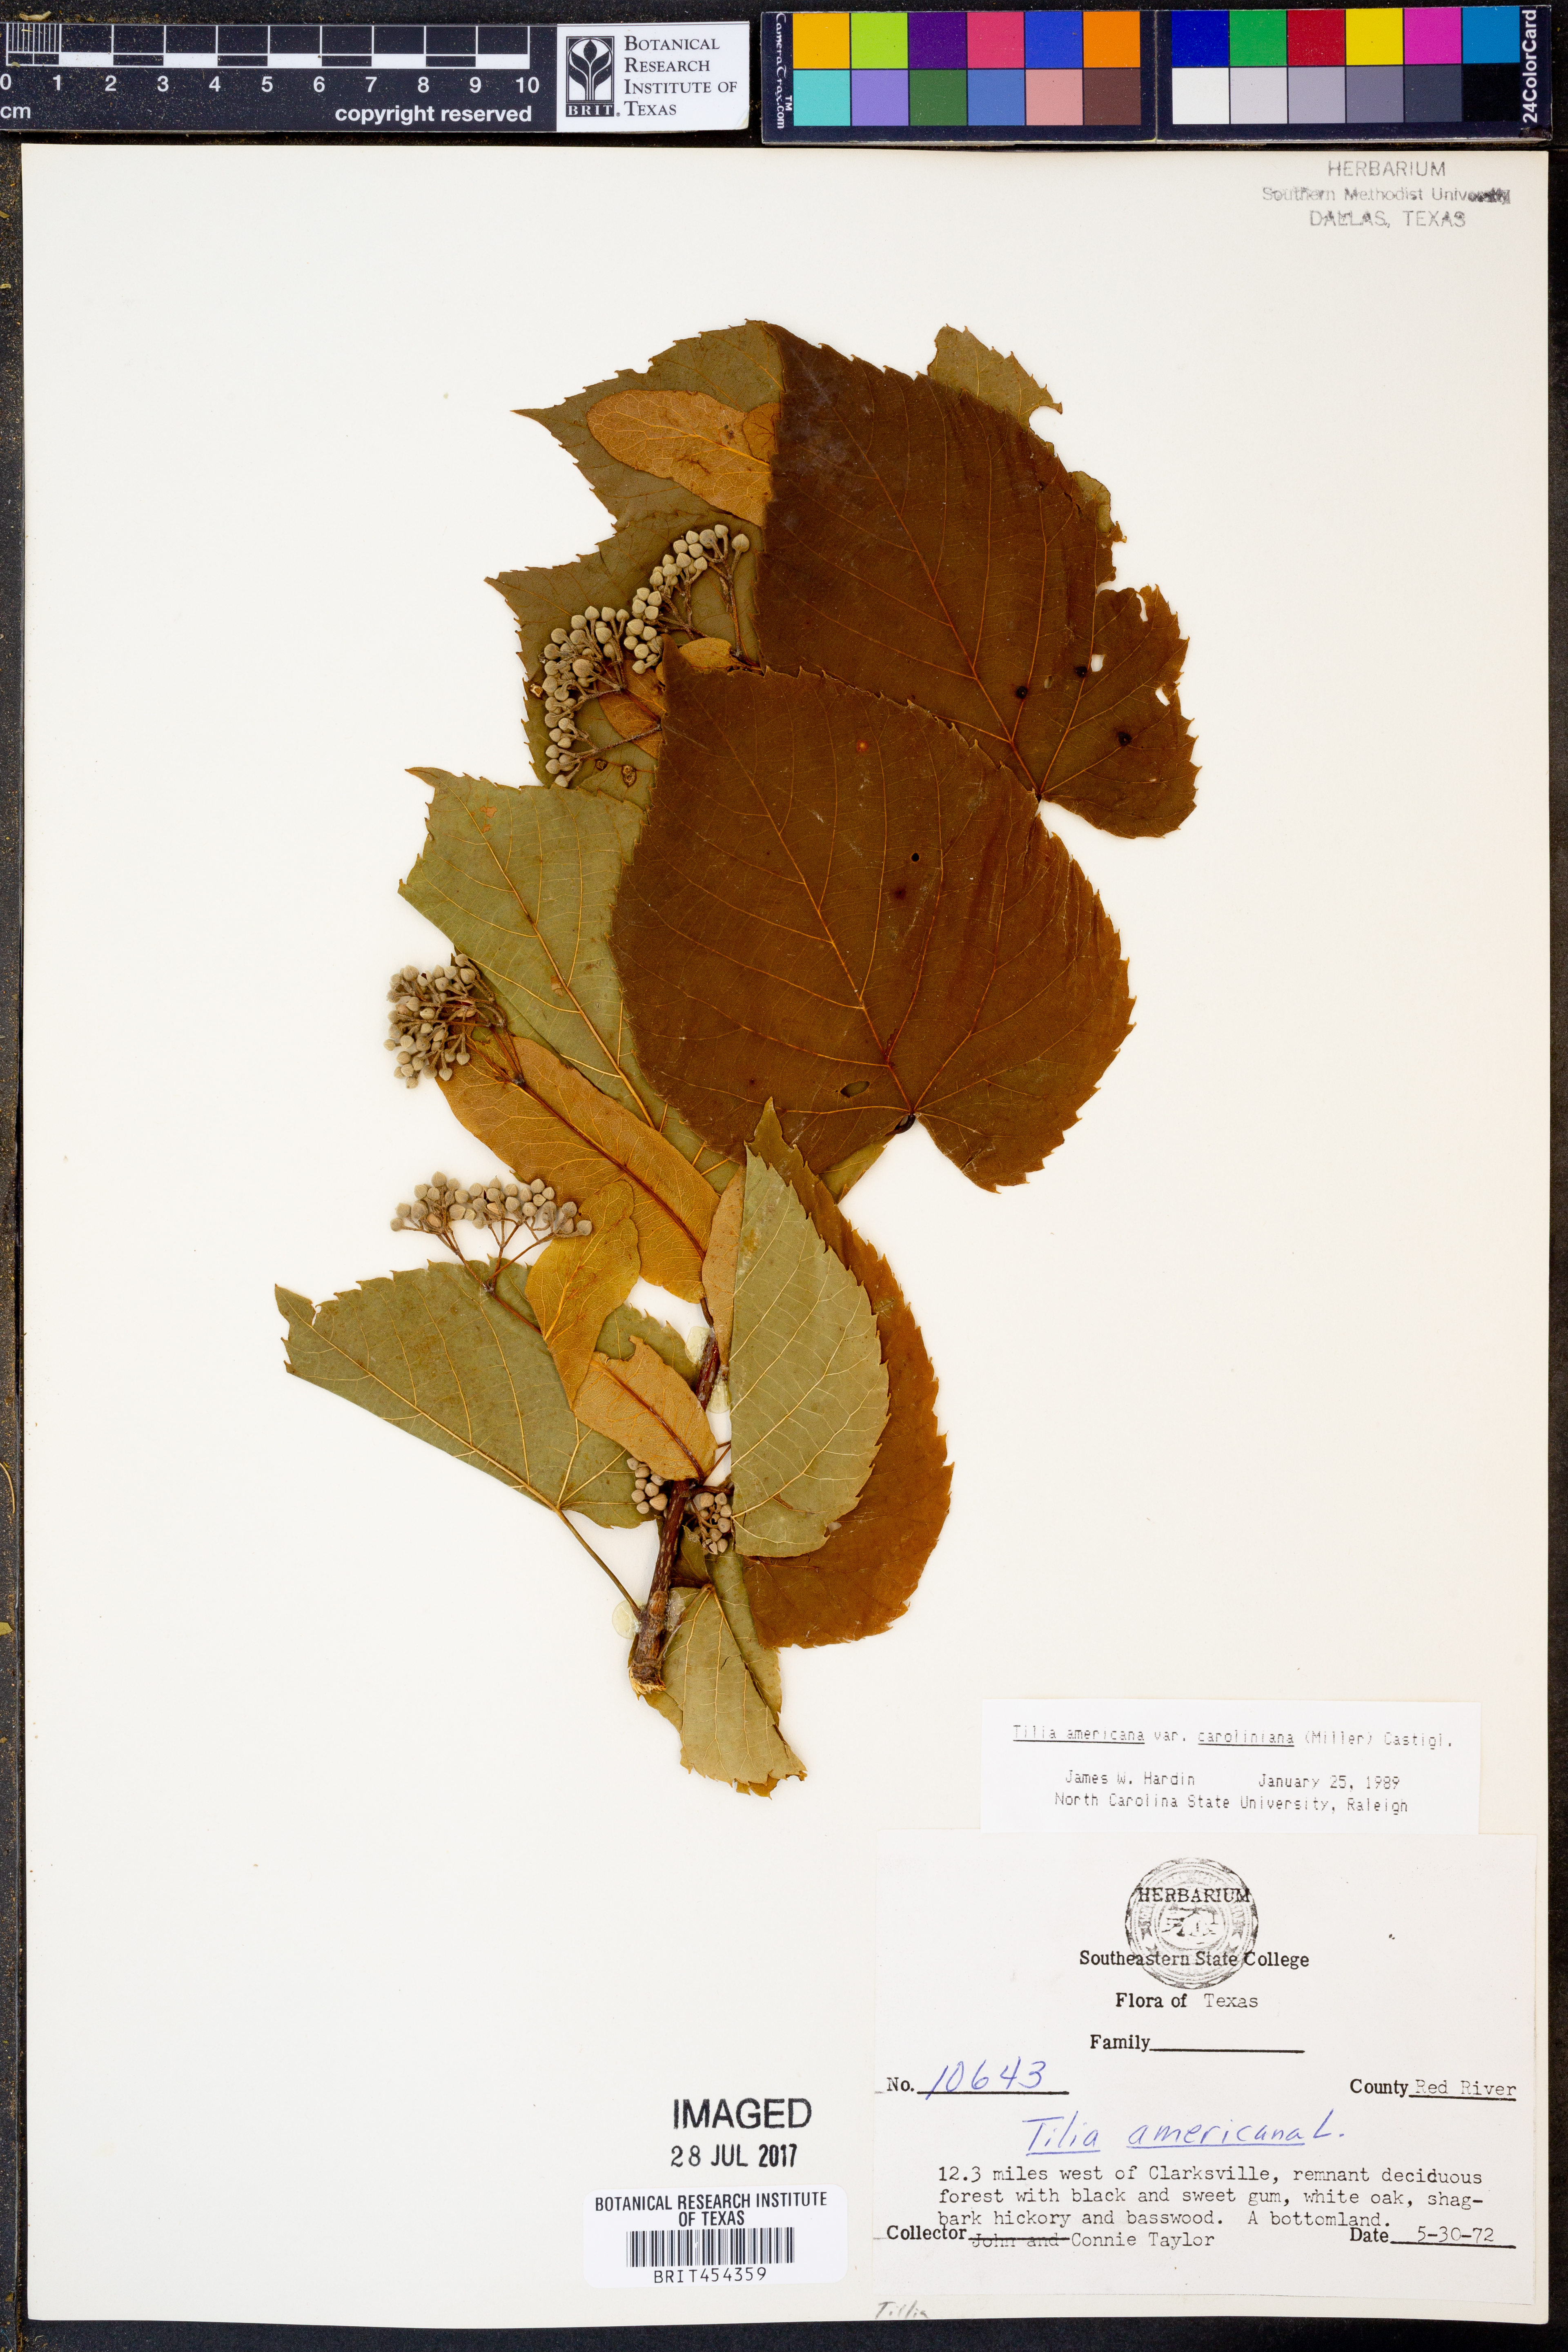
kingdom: Plantae
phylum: Tracheophyta
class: Magnoliopsida
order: Malvales
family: Malvaceae
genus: Tilia
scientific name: Tilia americana
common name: Basswood
